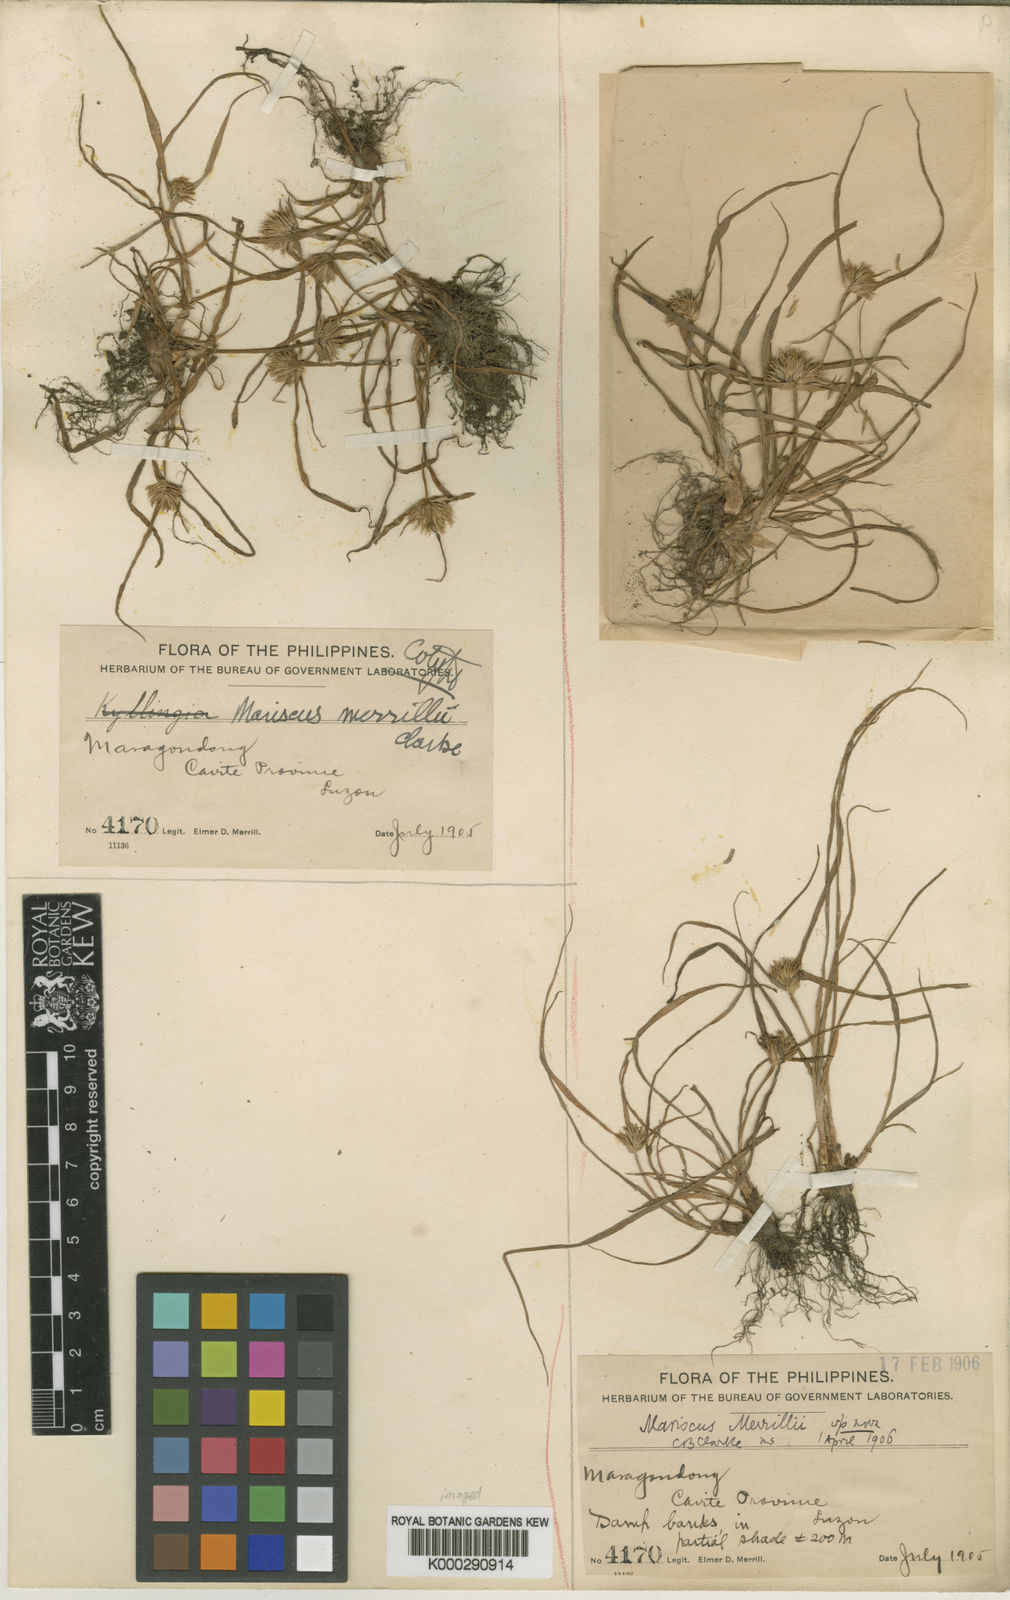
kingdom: Plantae
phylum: Tracheophyta
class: Liliopsida
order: Poales
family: Cyperaceae
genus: Cyperus
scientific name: Cyperus
